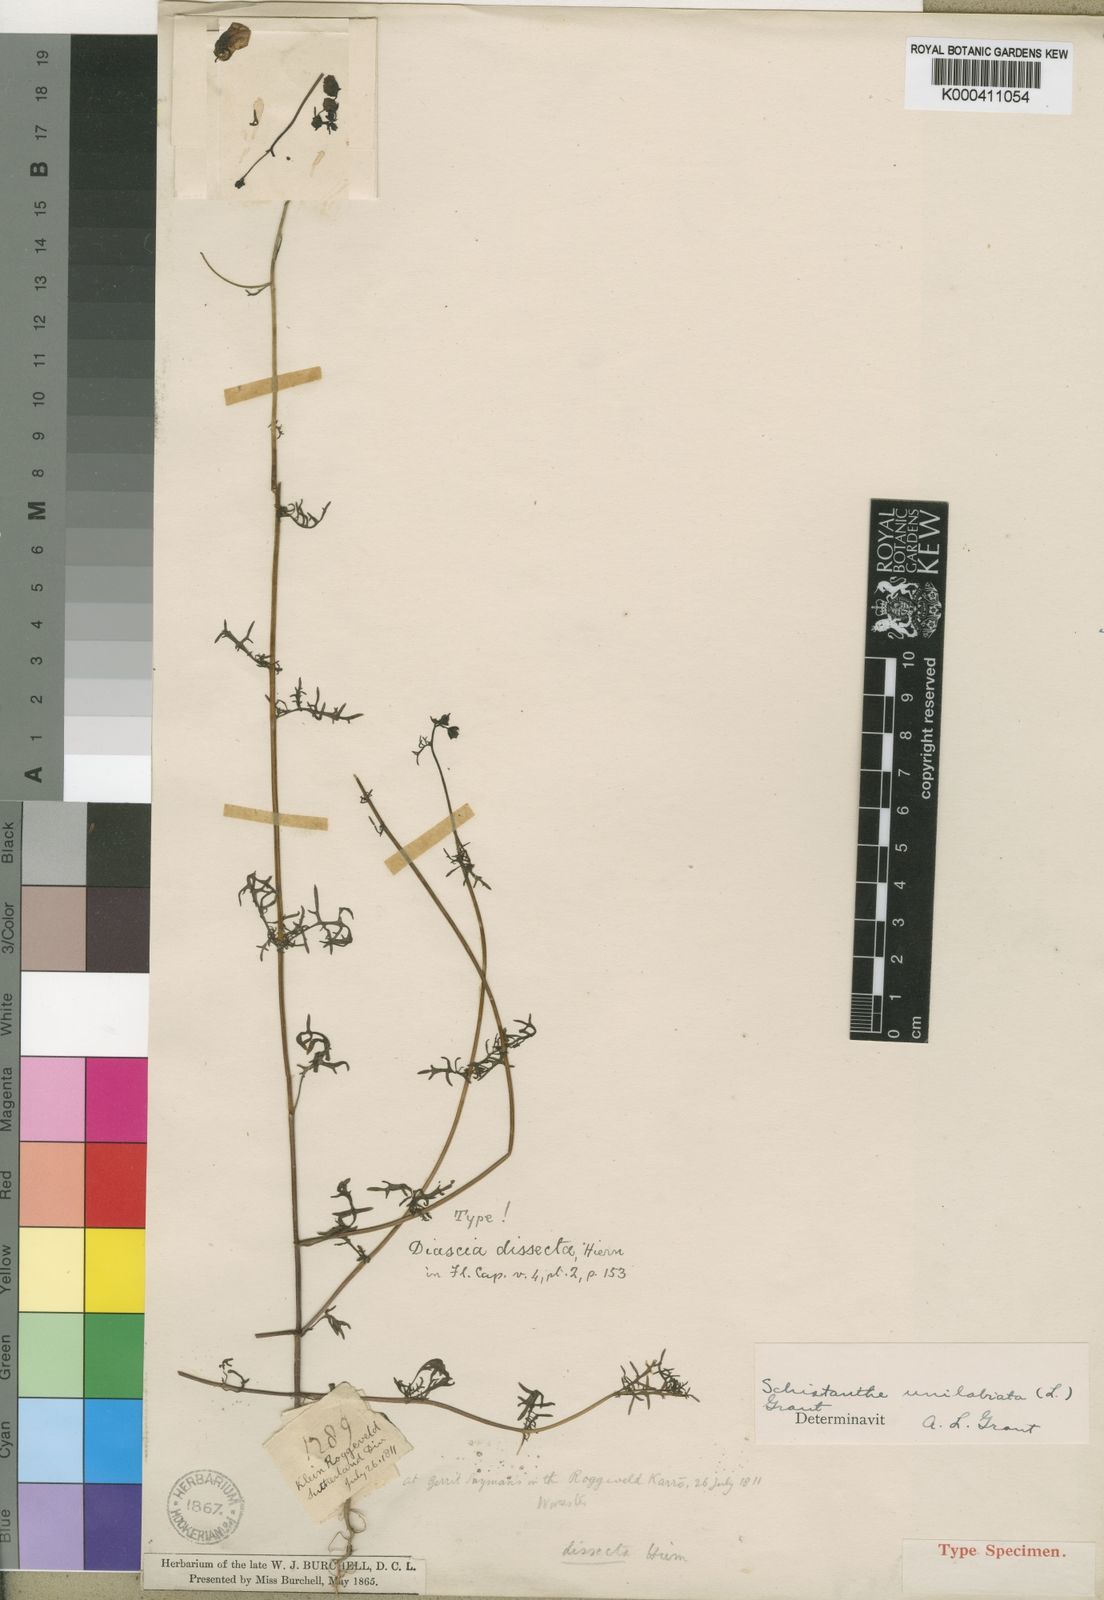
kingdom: Plantae
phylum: Tracheophyta
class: Magnoliopsida
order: Lamiales
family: Scrophulariaceae
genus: Alonsoa
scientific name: Alonsoa
